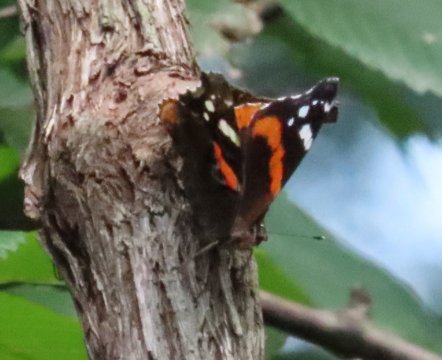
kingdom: Animalia
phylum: Arthropoda
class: Insecta
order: Lepidoptera
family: Nymphalidae
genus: Vanessa
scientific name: Vanessa atalanta
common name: Red Admiral
